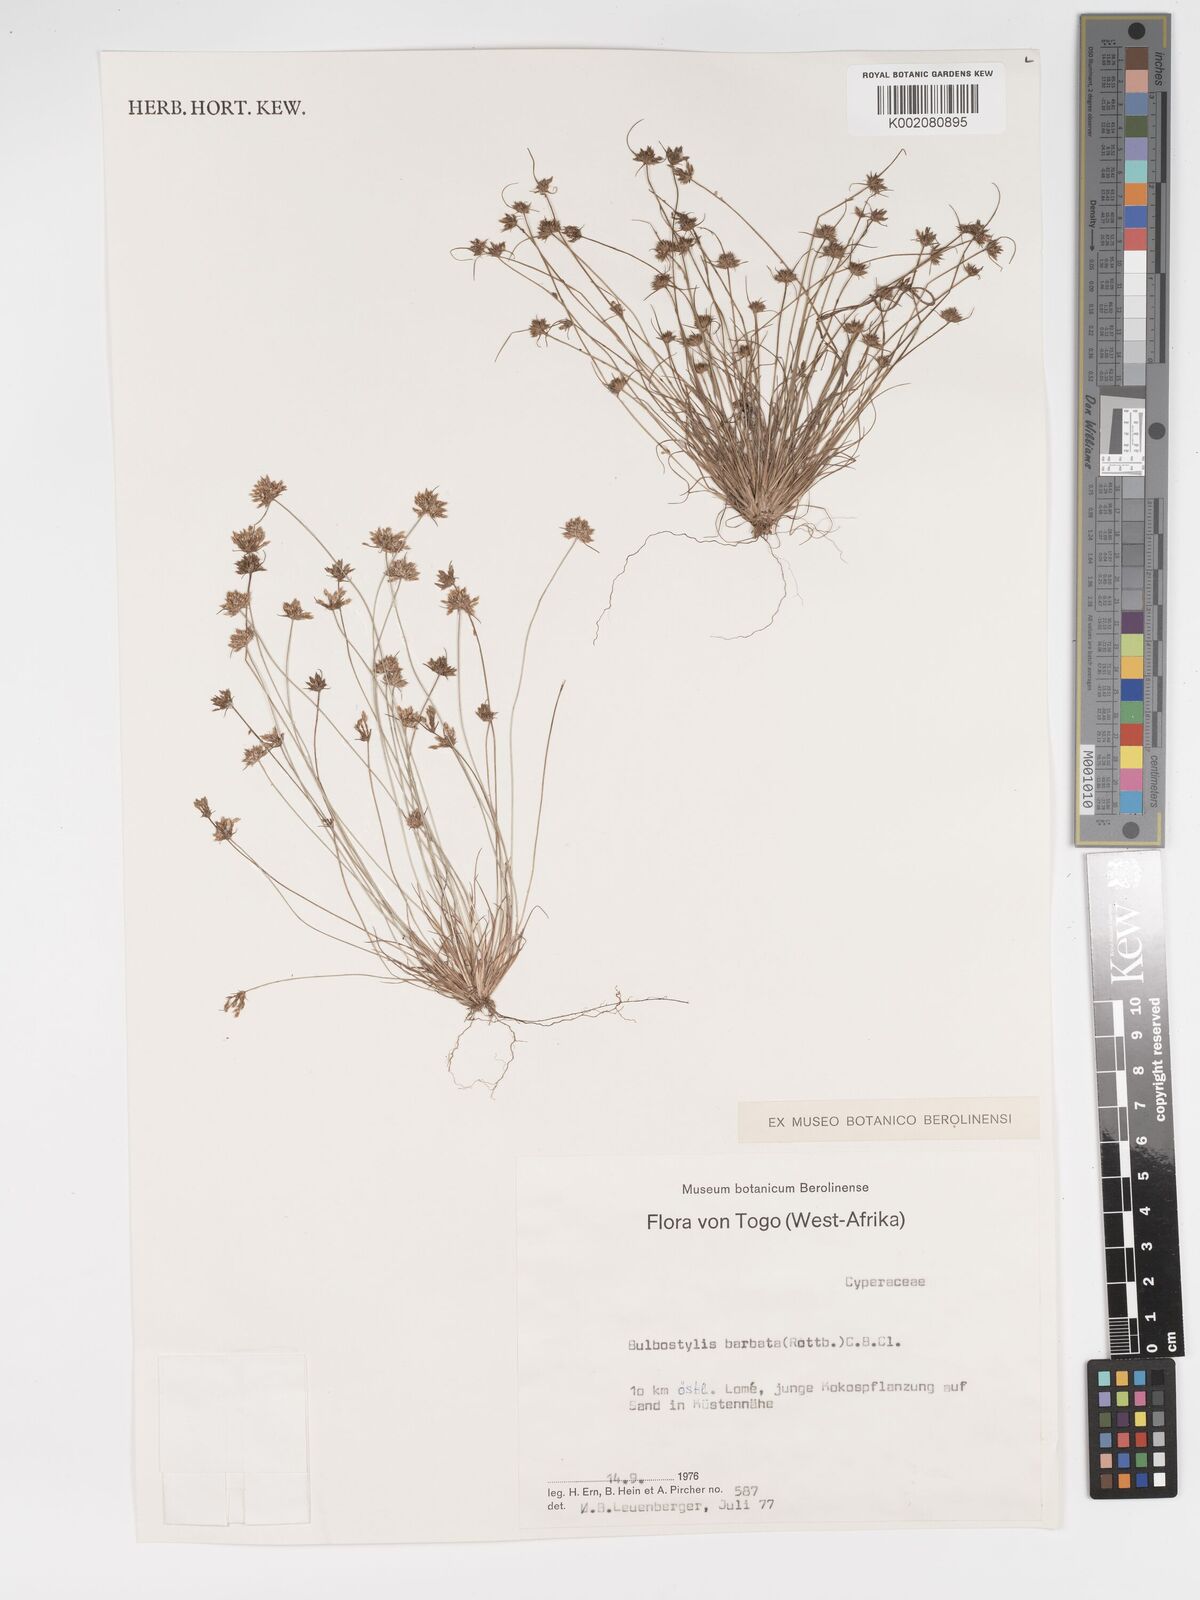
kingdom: Plantae
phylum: Tracheophyta
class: Liliopsida
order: Poales
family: Cyperaceae
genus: Bulbostylis
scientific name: Bulbostylis barbata
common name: Watergrass
